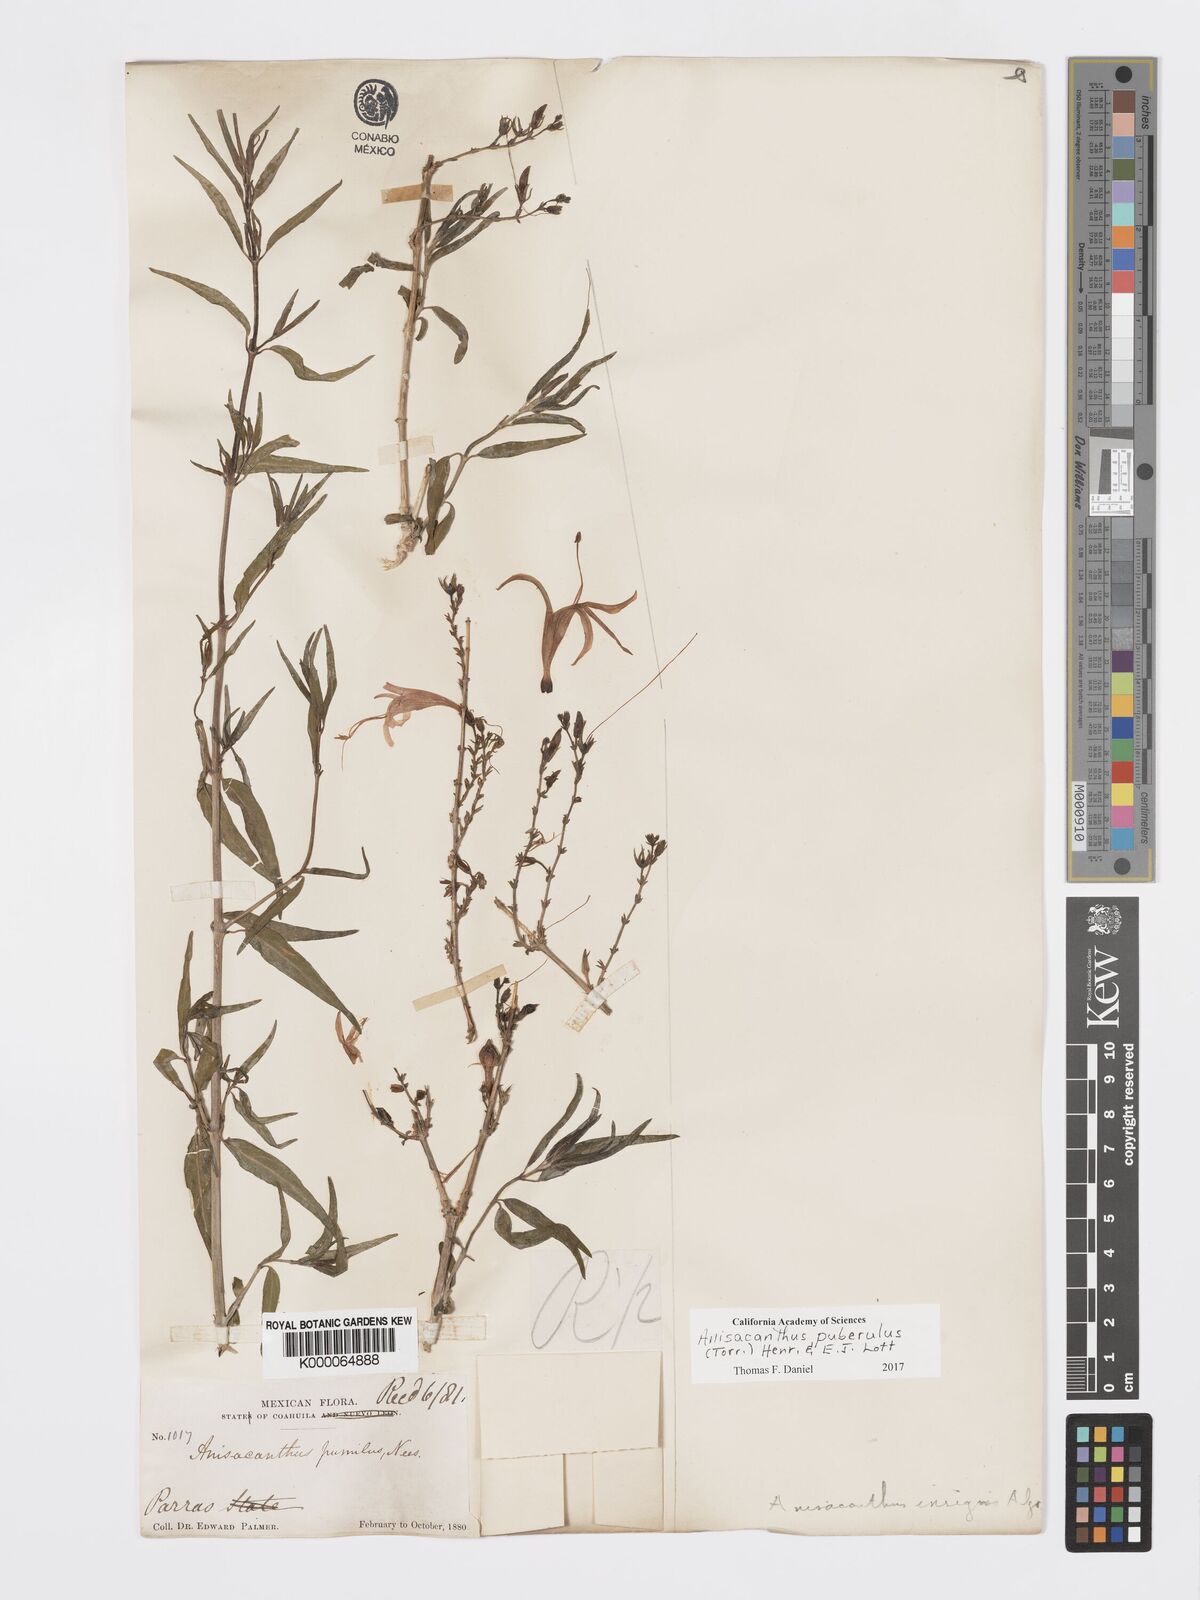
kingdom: Plantae
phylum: Tracheophyta
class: Magnoliopsida
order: Lamiales
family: Acanthaceae
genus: Anisacanthus
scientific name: Anisacanthus
